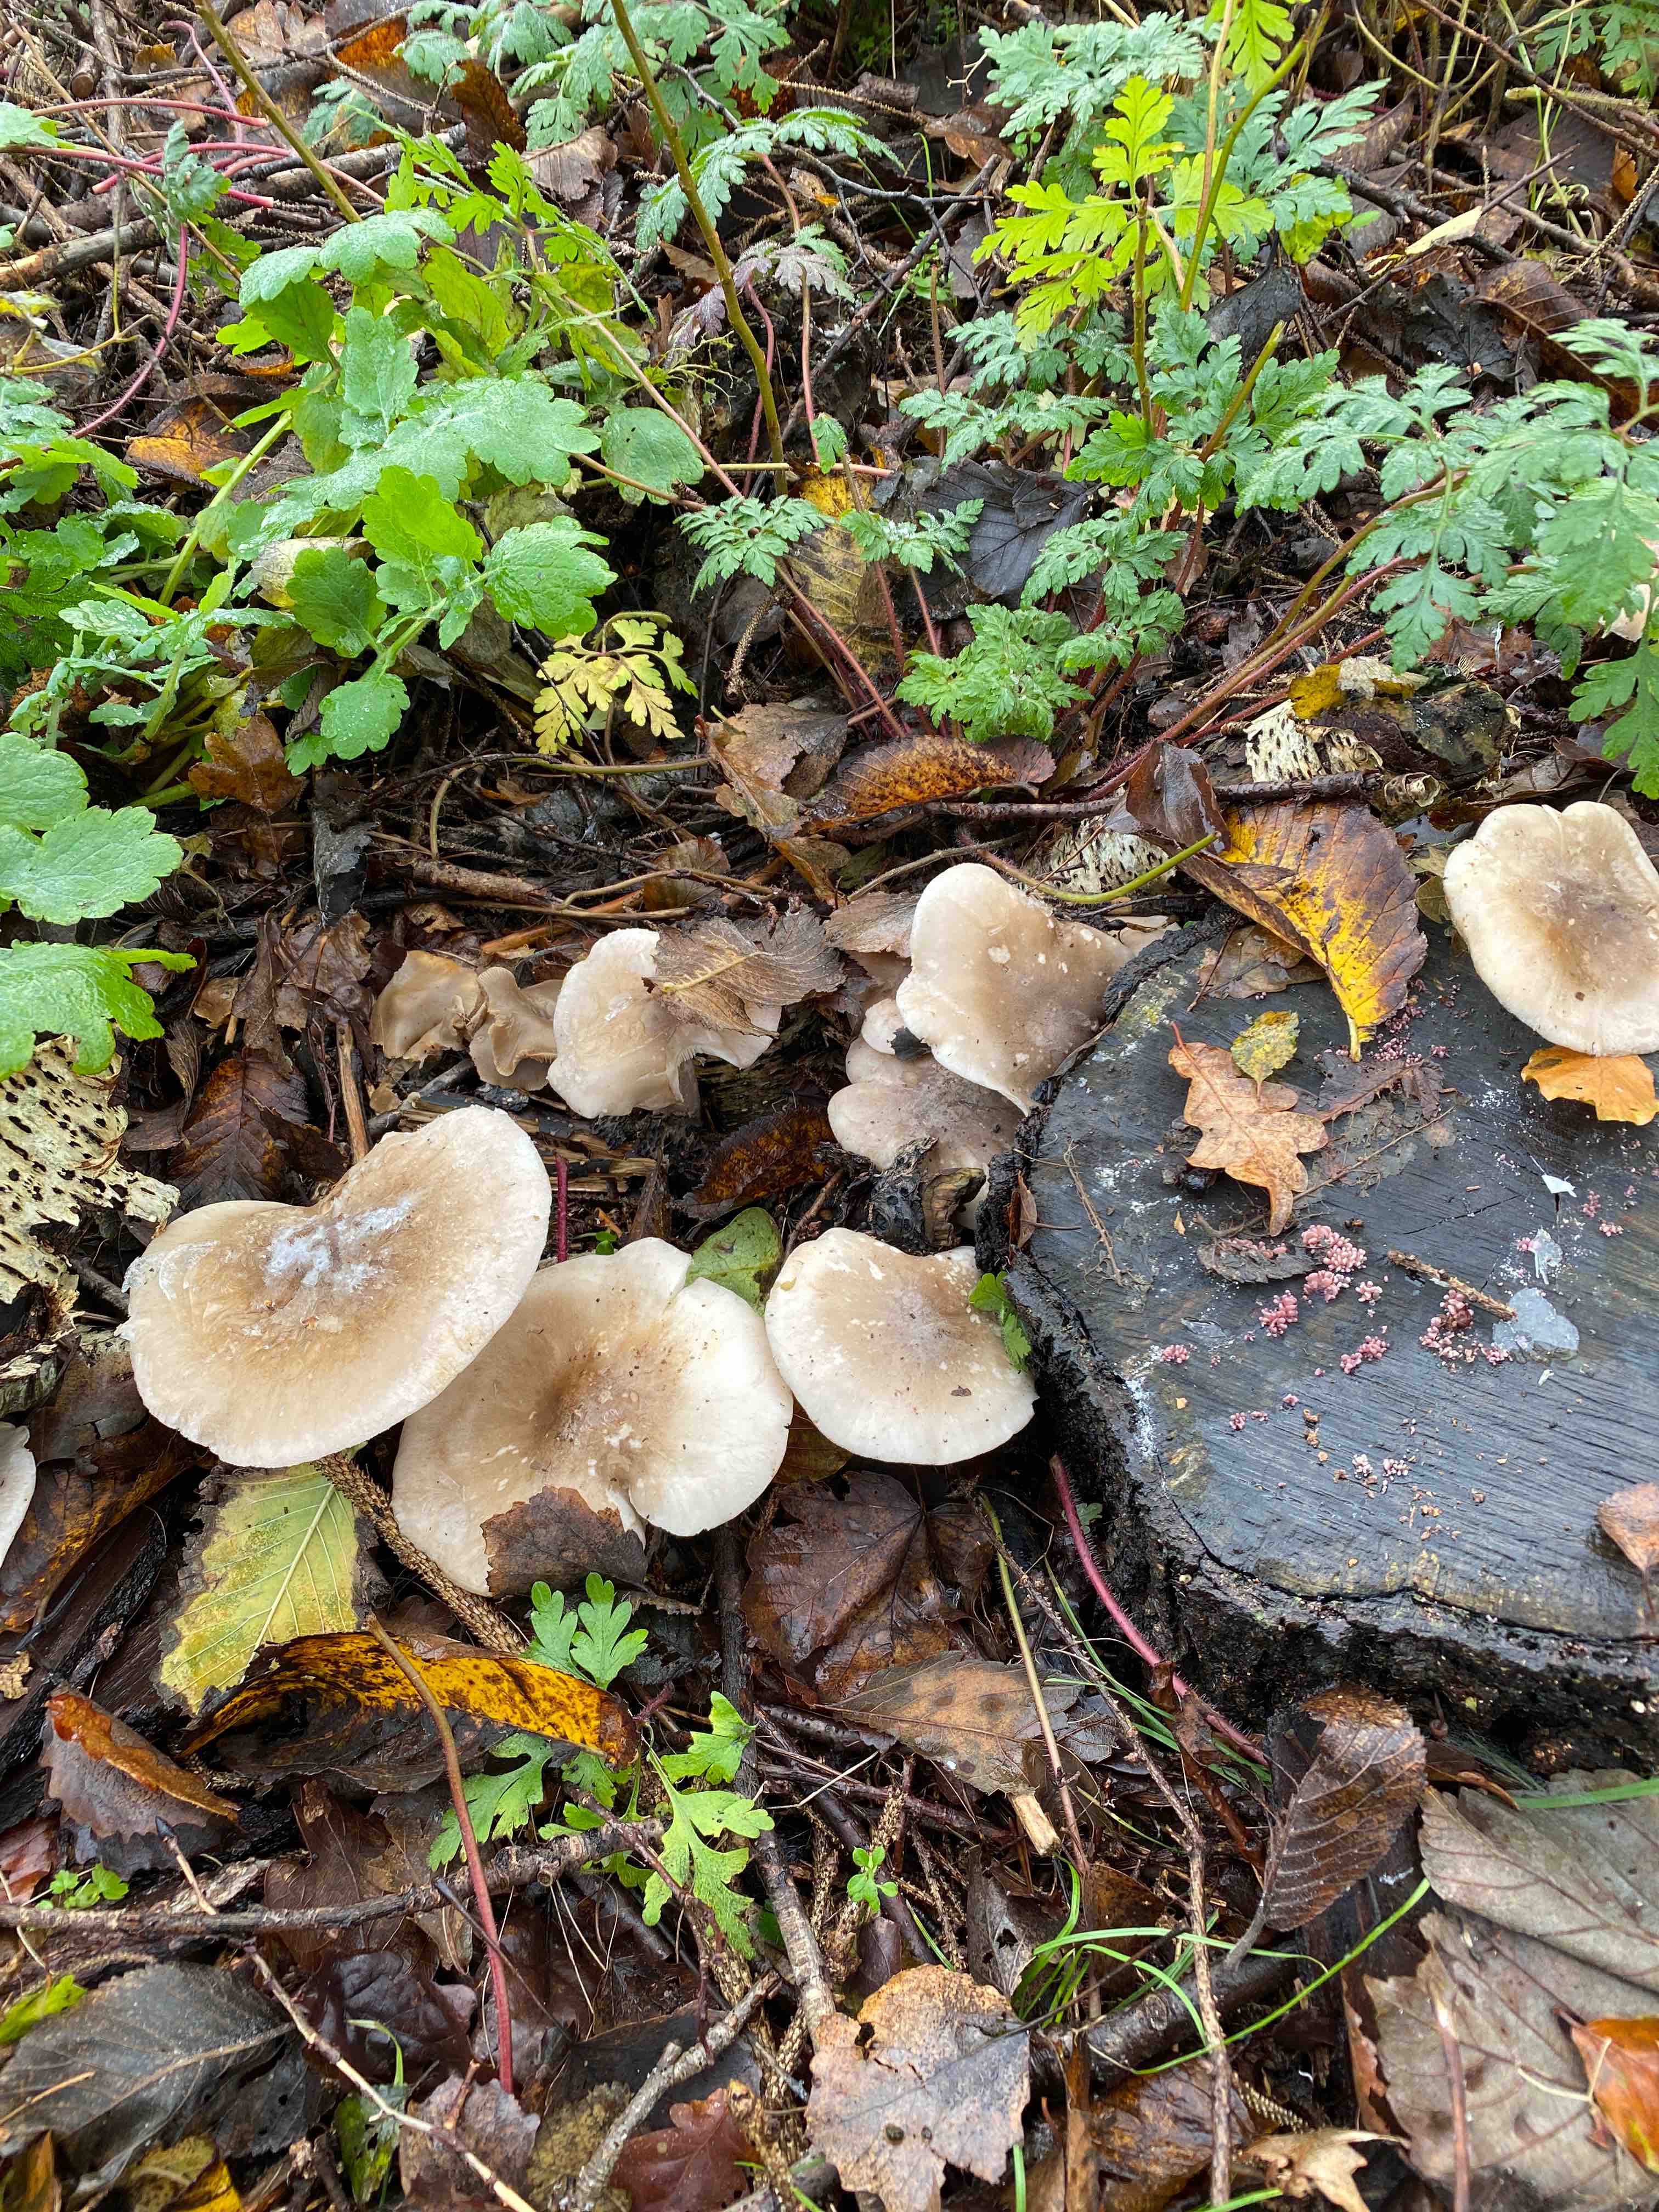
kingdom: Fungi
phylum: Basidiomycota
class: Agaricomycetes
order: Agaricales
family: Tricholomataceae
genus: Clitocybe
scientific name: Clitocybe nebularis
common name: tåge-tragthat
